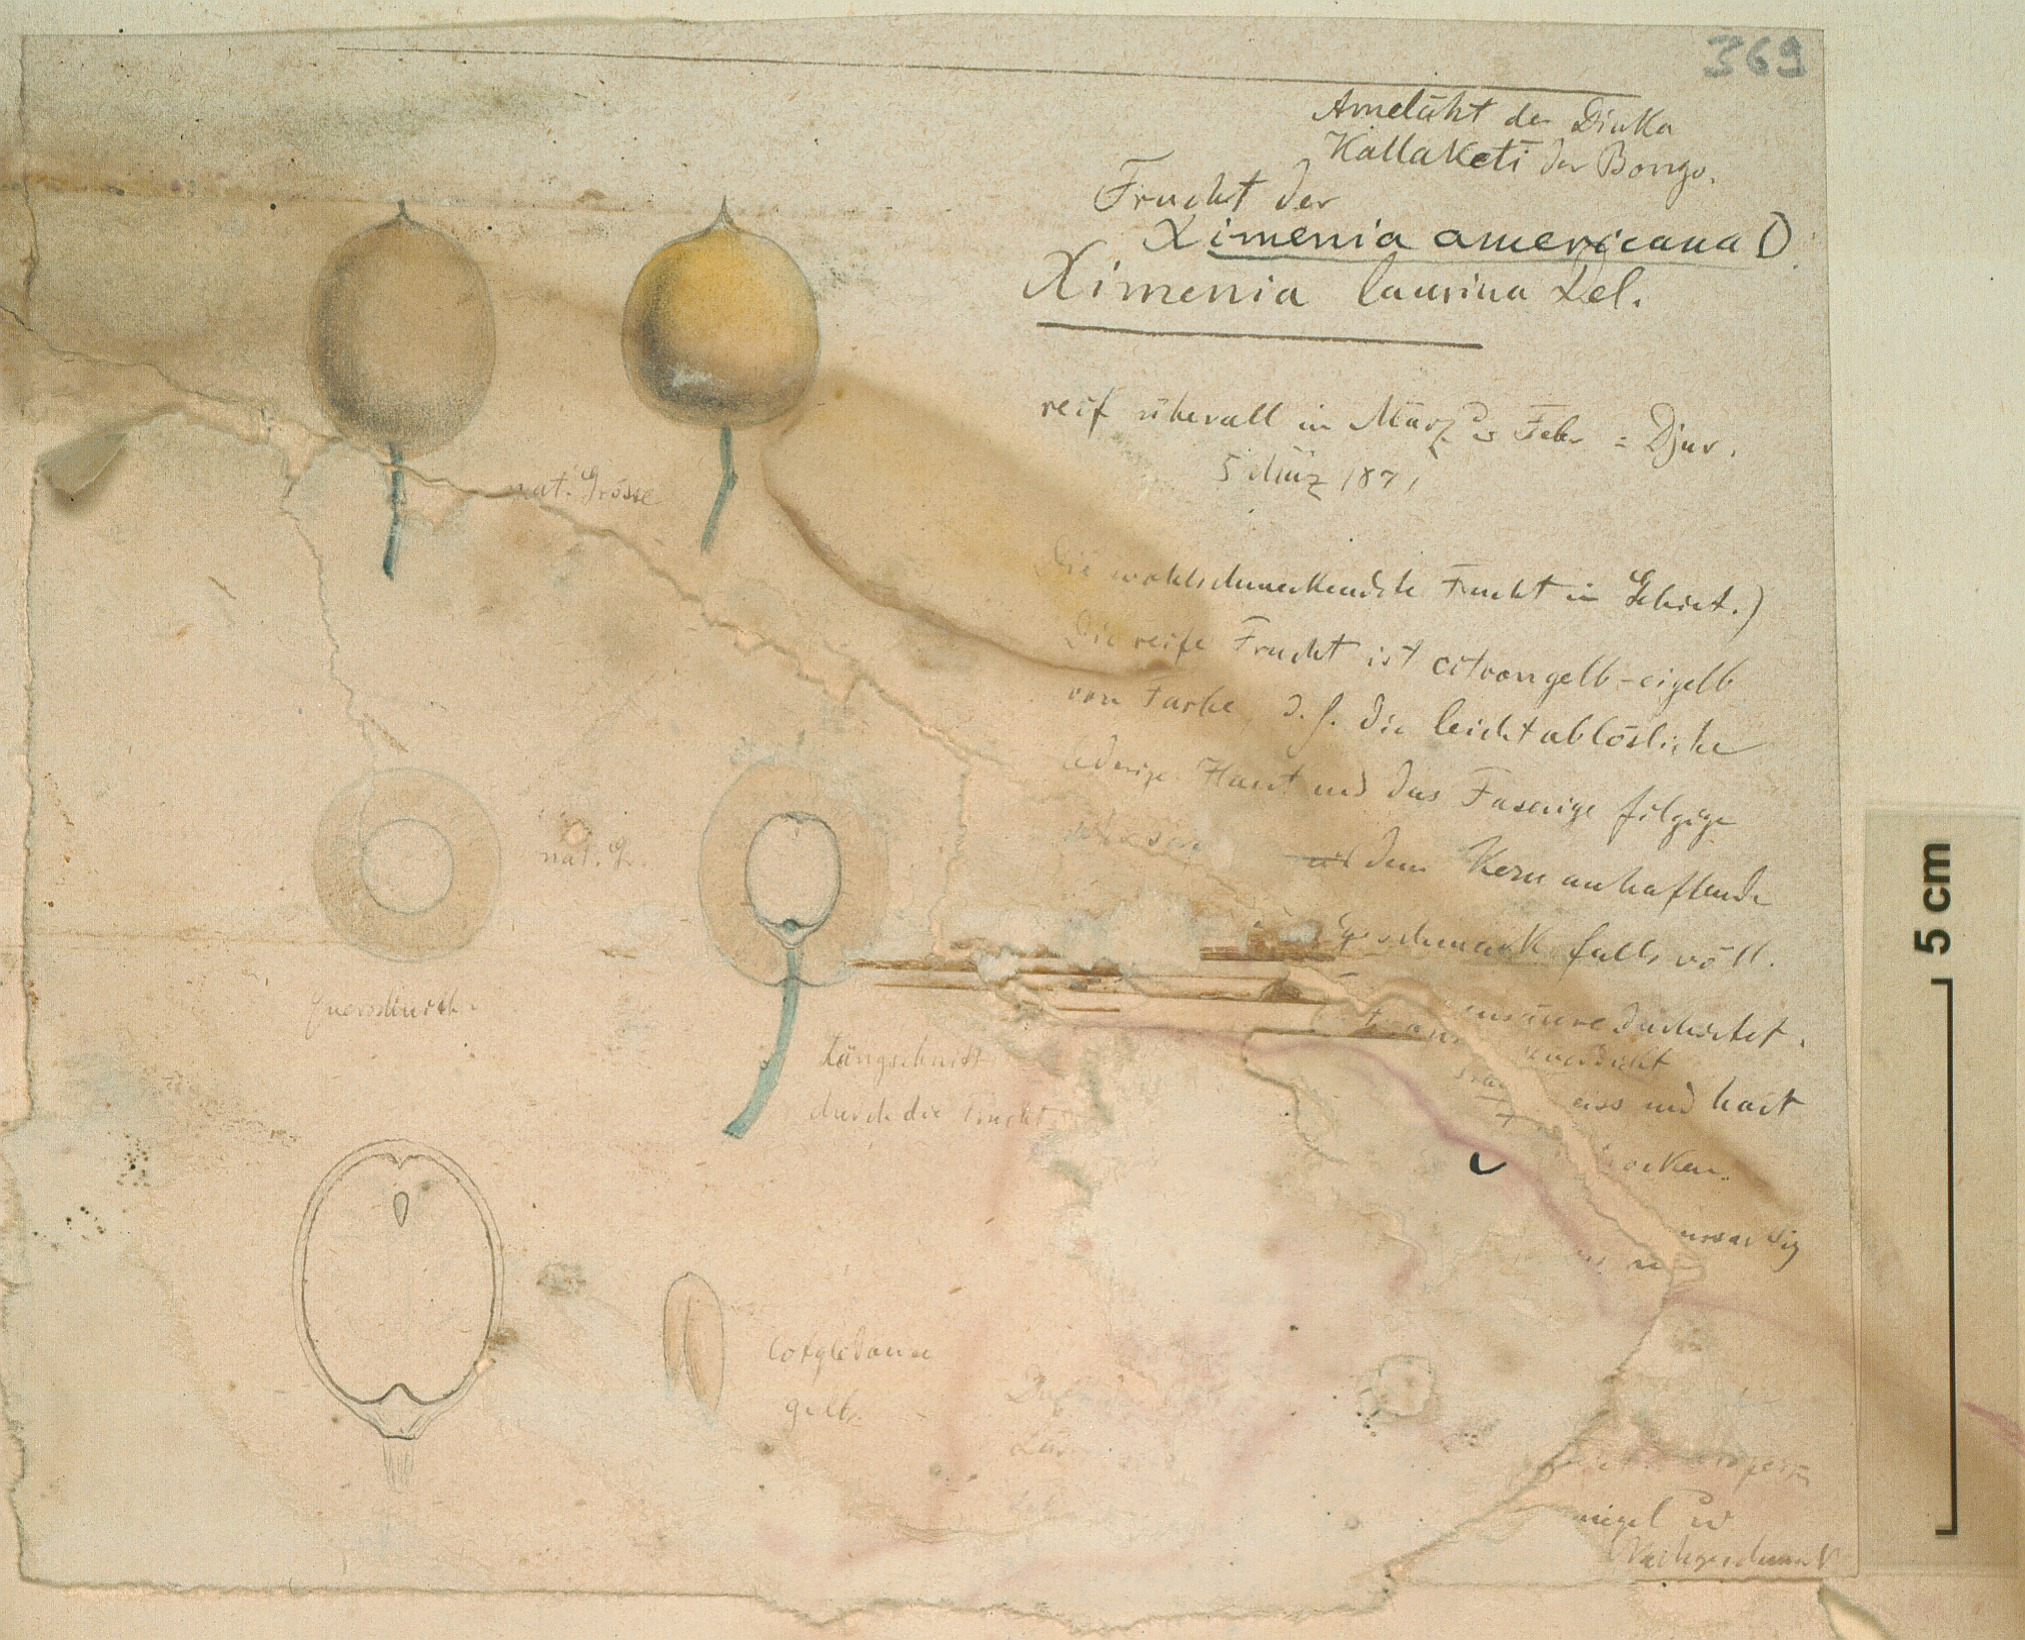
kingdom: Plantae
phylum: Tracheophyta
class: Magnoliopsida
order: Santalales
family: Ximeniaceae
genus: Ximenia
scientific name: Ximenia americana
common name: Tallowwood
